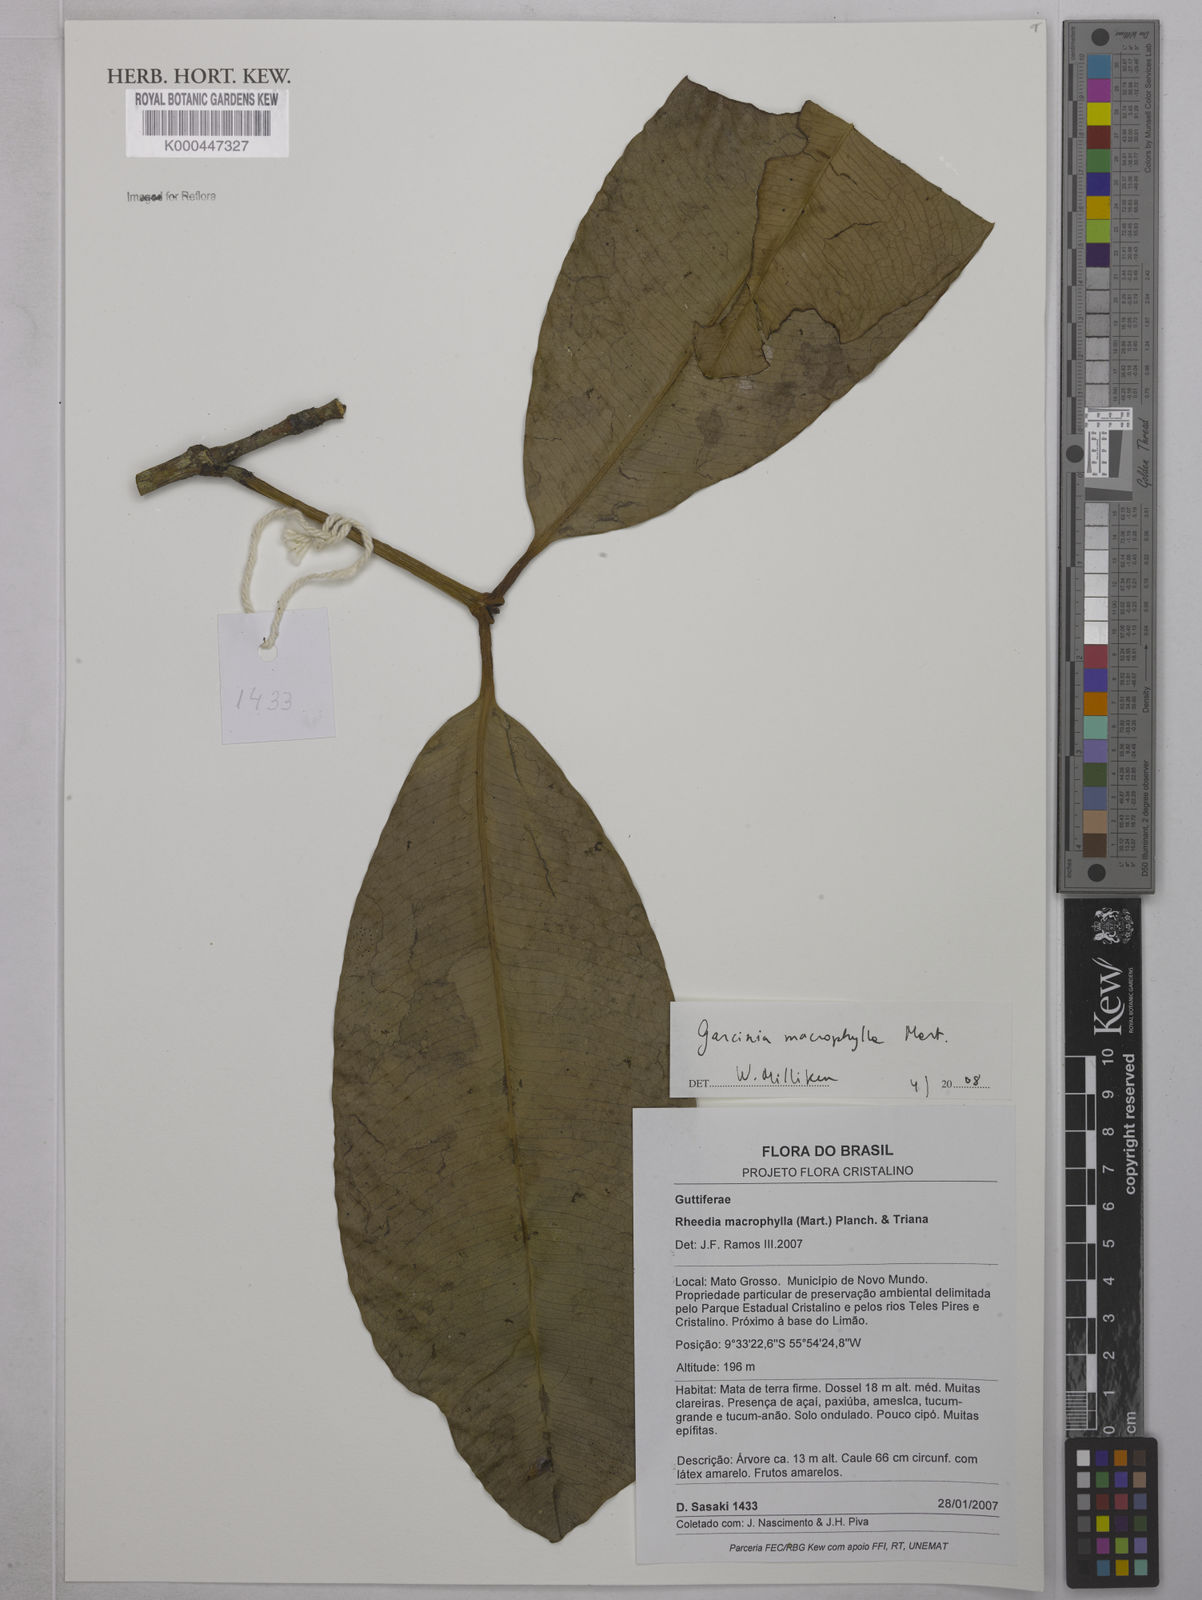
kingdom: Plantae
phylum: Tracheophyta
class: Magnoliopsida
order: Malpighiales
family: Clusiaceae
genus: Garcinia
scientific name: Garcinia macrophylla
